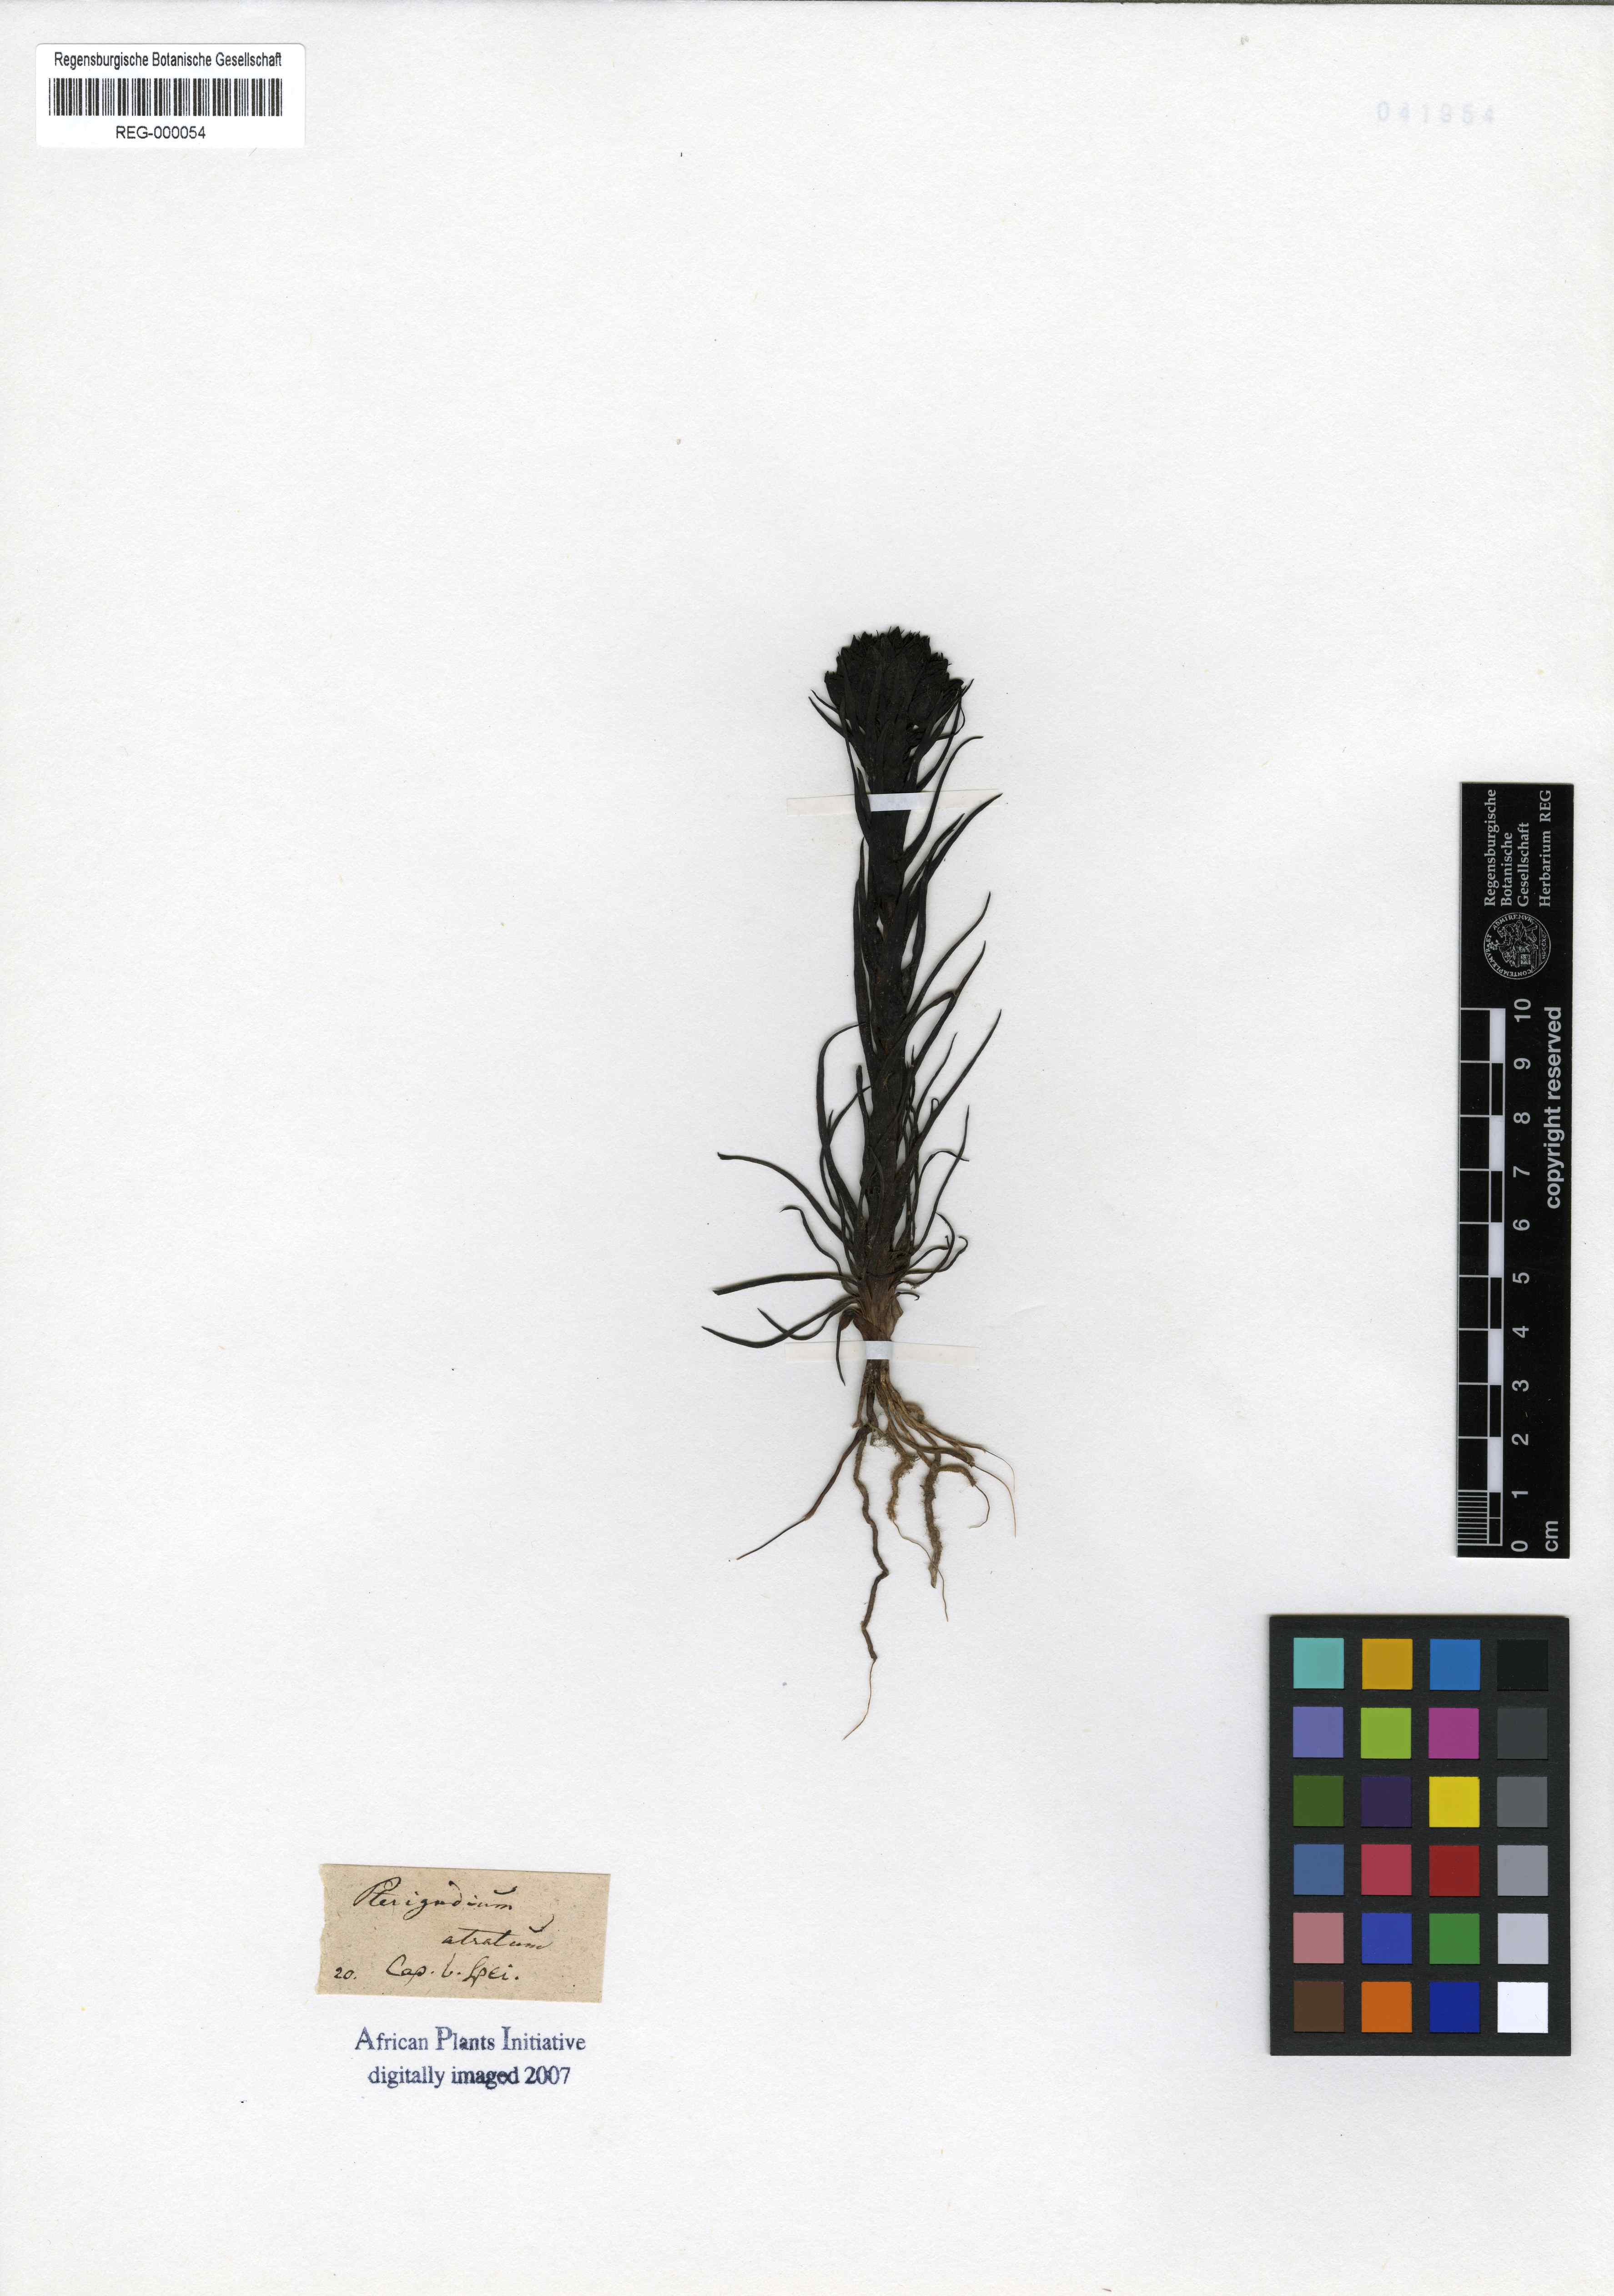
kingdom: Plantae
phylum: Tracheophyta
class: Liliopsida
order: Asparagales
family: Orchidaceae
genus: Pterygodium
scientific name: Pterygodium alatum
